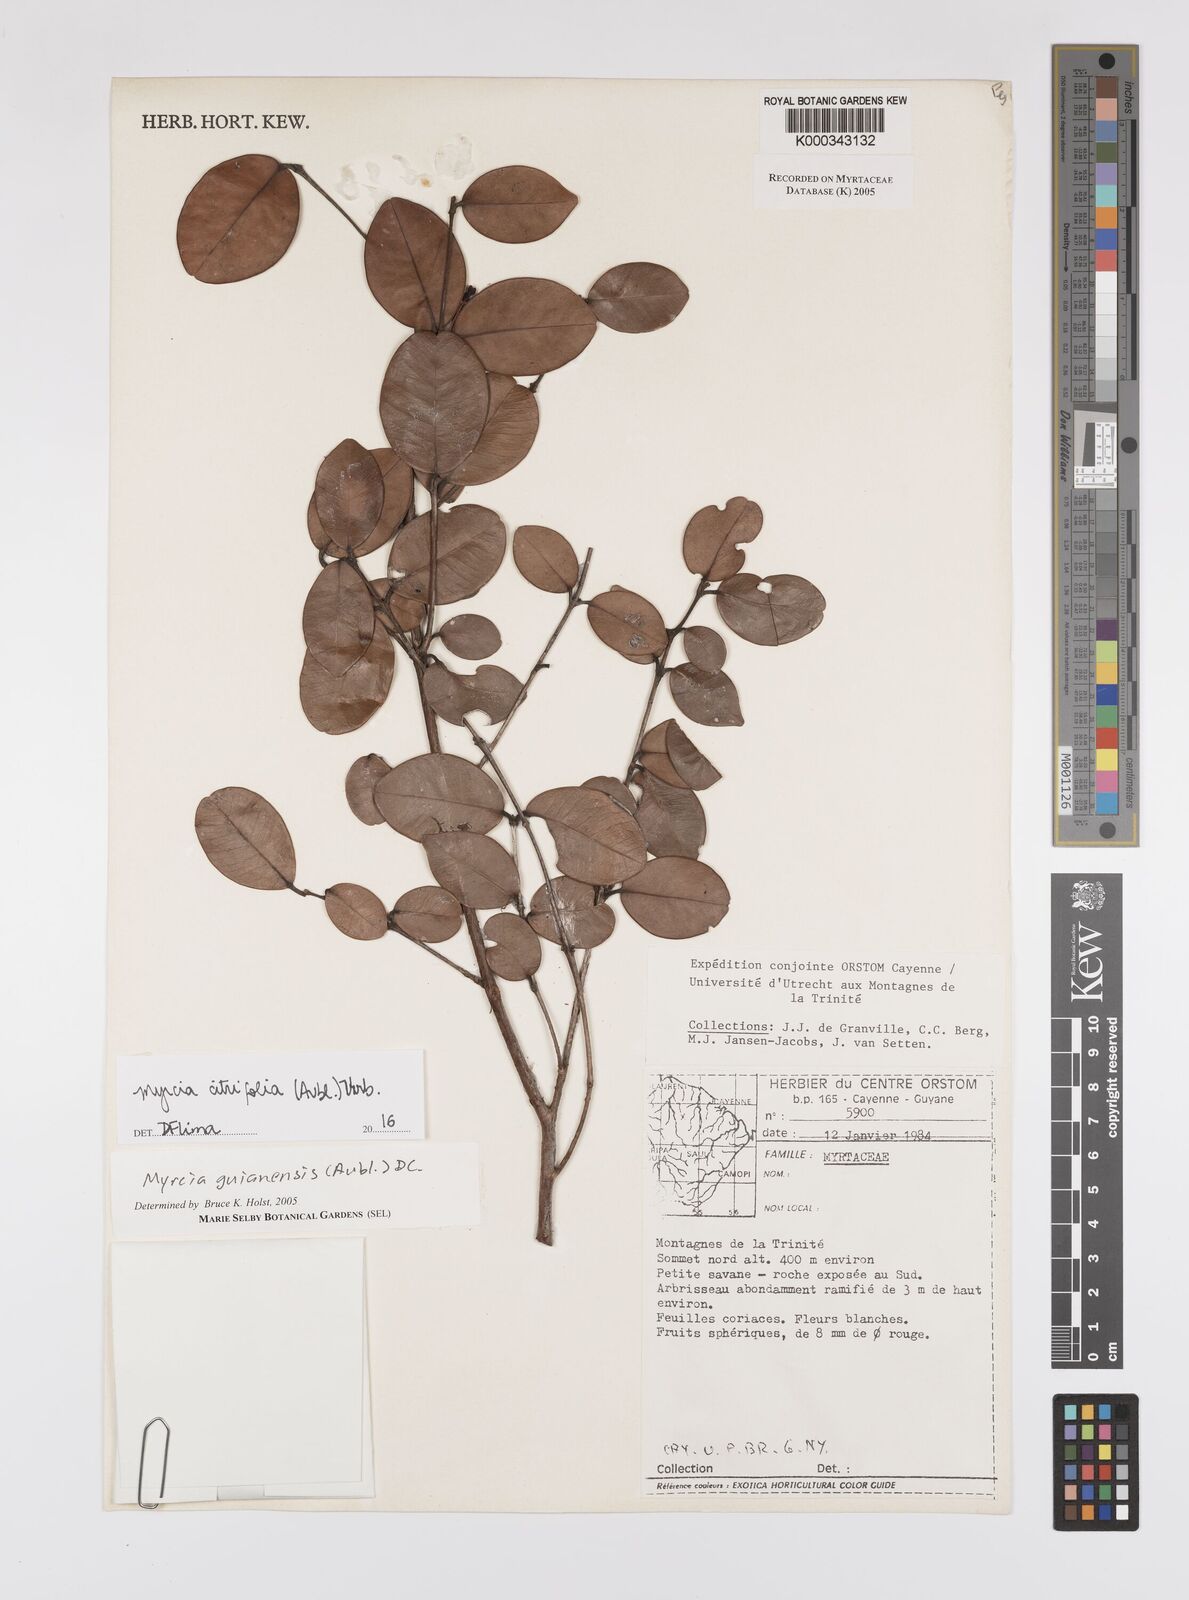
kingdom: Plantae
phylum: Tracheophyta
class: Magnoliopsida
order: Myrtales
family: Myrtaceae
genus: Myrcia
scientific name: Myrcia guianensis
